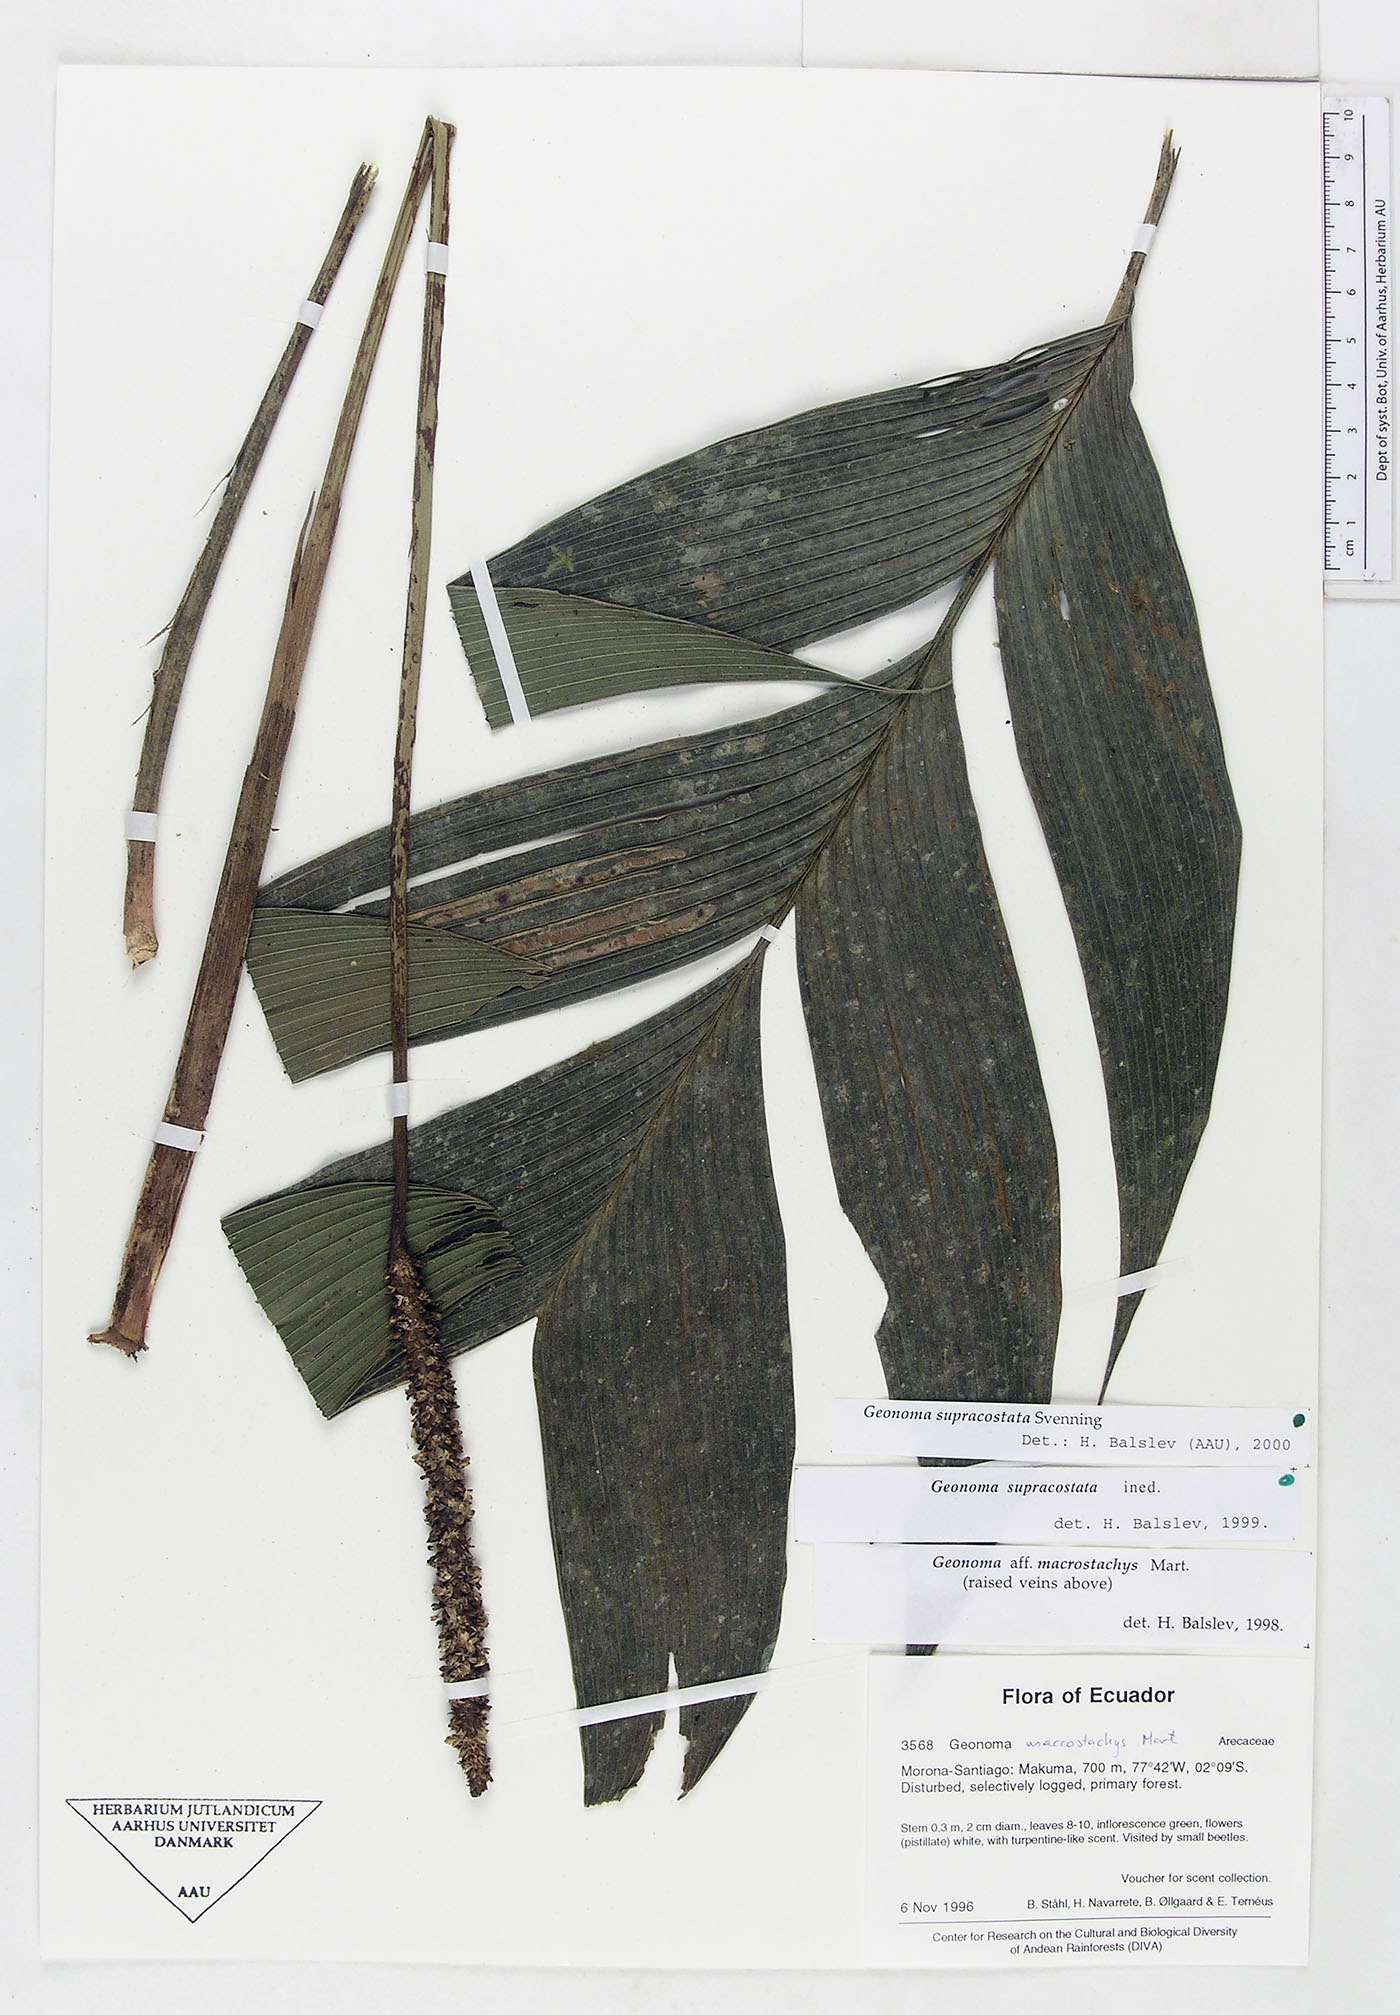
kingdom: Plantae
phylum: Tracheophyta
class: Liliopsida
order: Arecales
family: Arecaceae
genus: Geonoma
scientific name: Geonoma macrostachys
